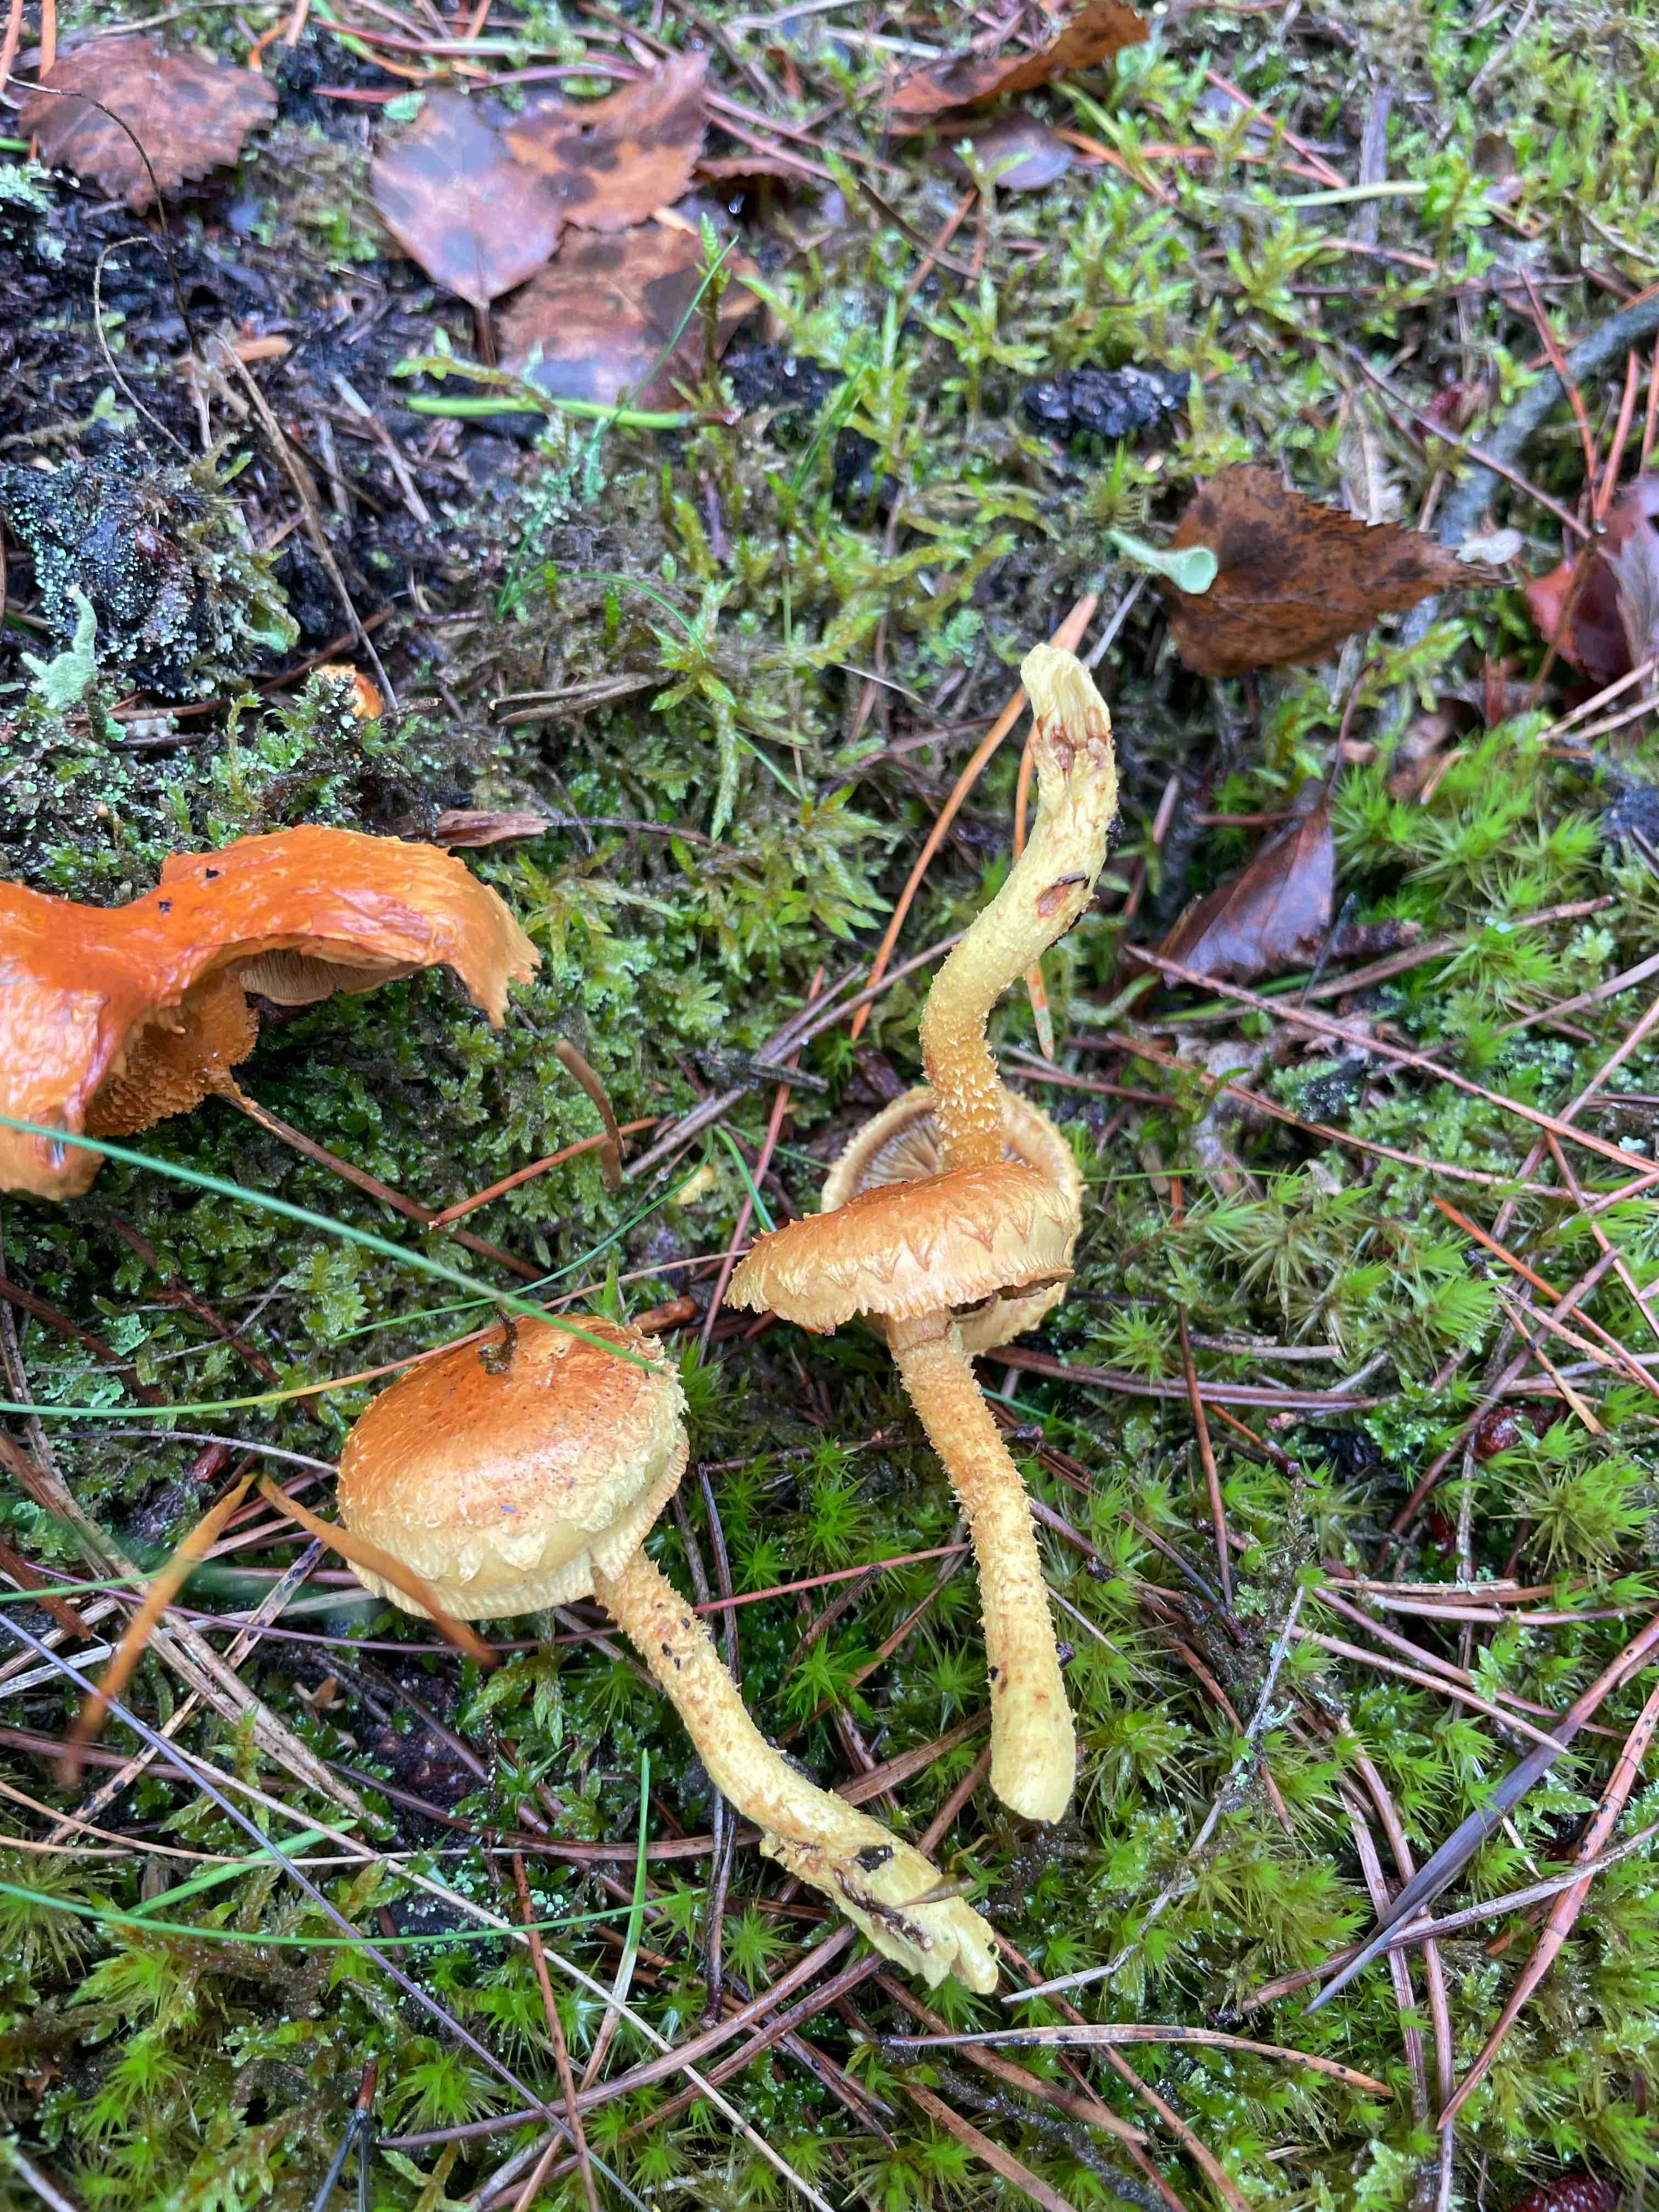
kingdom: Fungi
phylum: Basidiomycota
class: Agaricomycetes
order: Agaricales
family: Strophariaceae
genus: Pholiota
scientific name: Pholiota flammans
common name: flamme-skælhat
